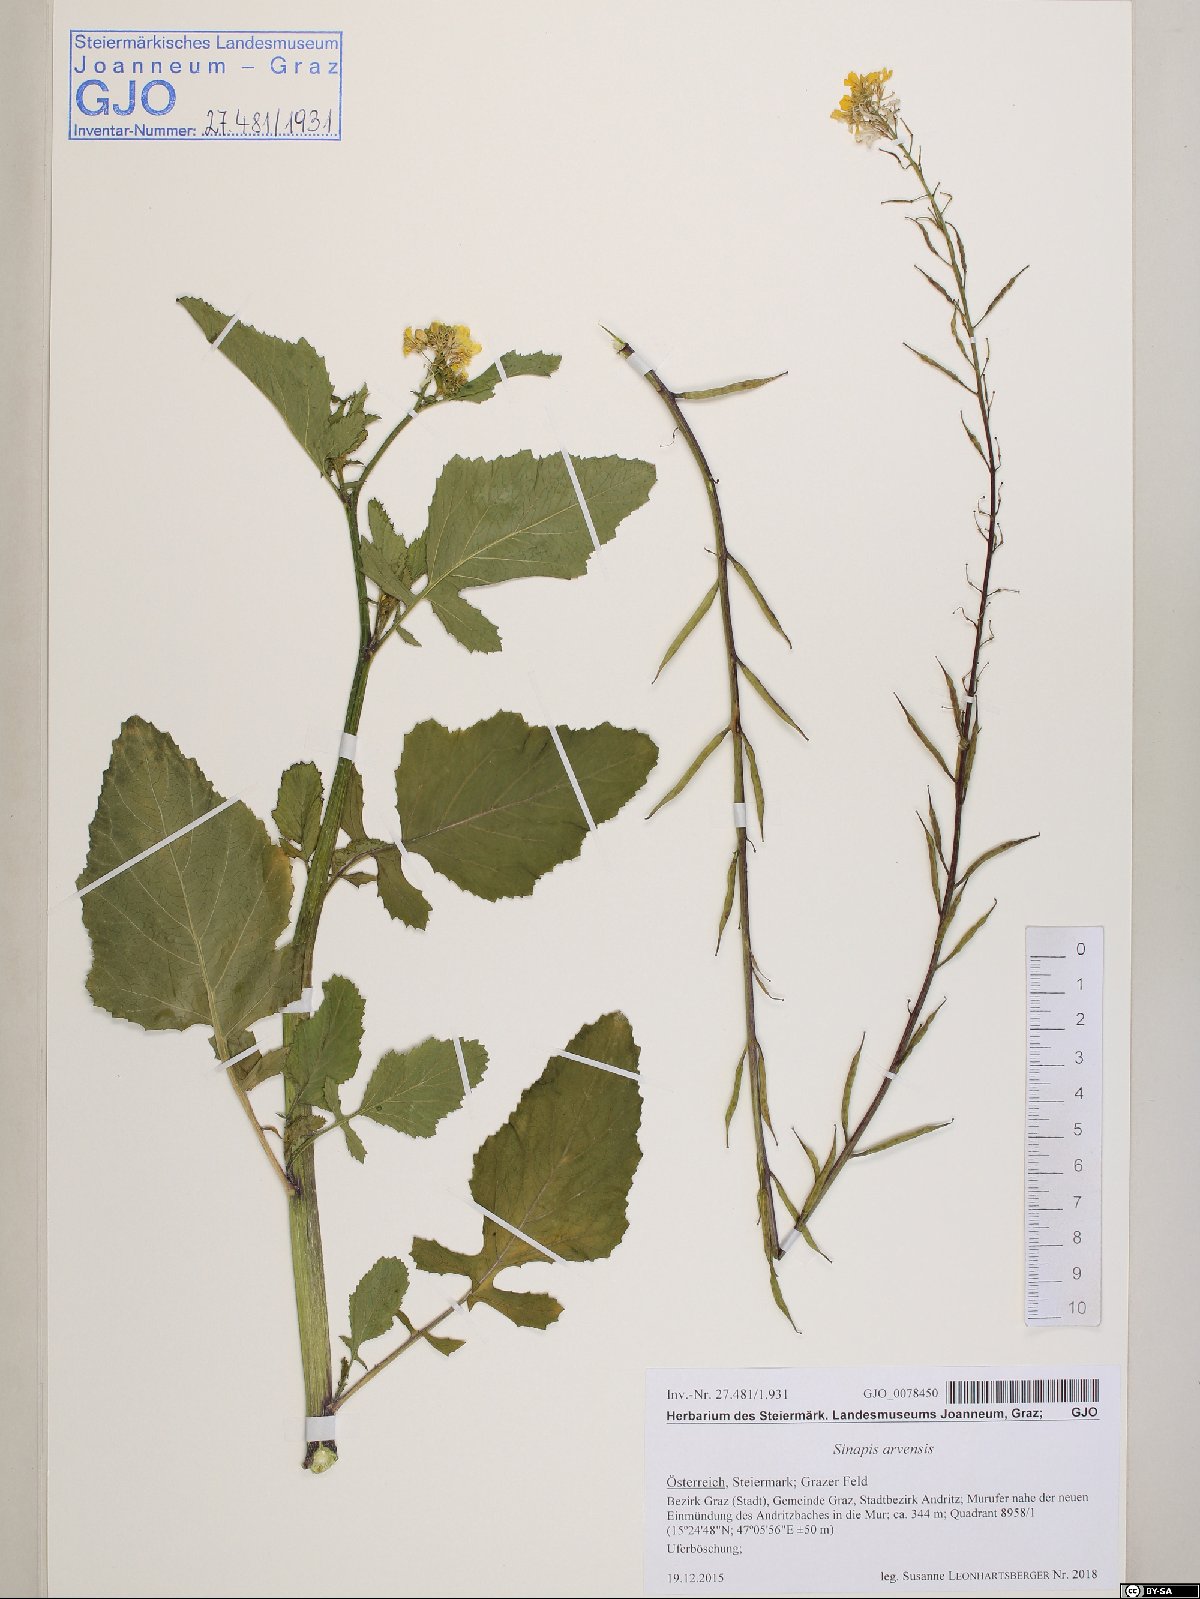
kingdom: Plantae
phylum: Tracheophyta
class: Magnoliopsida
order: Brassicales
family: Brassicaceae
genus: Sinapis
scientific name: Sinapis arvensis
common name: Charlock
